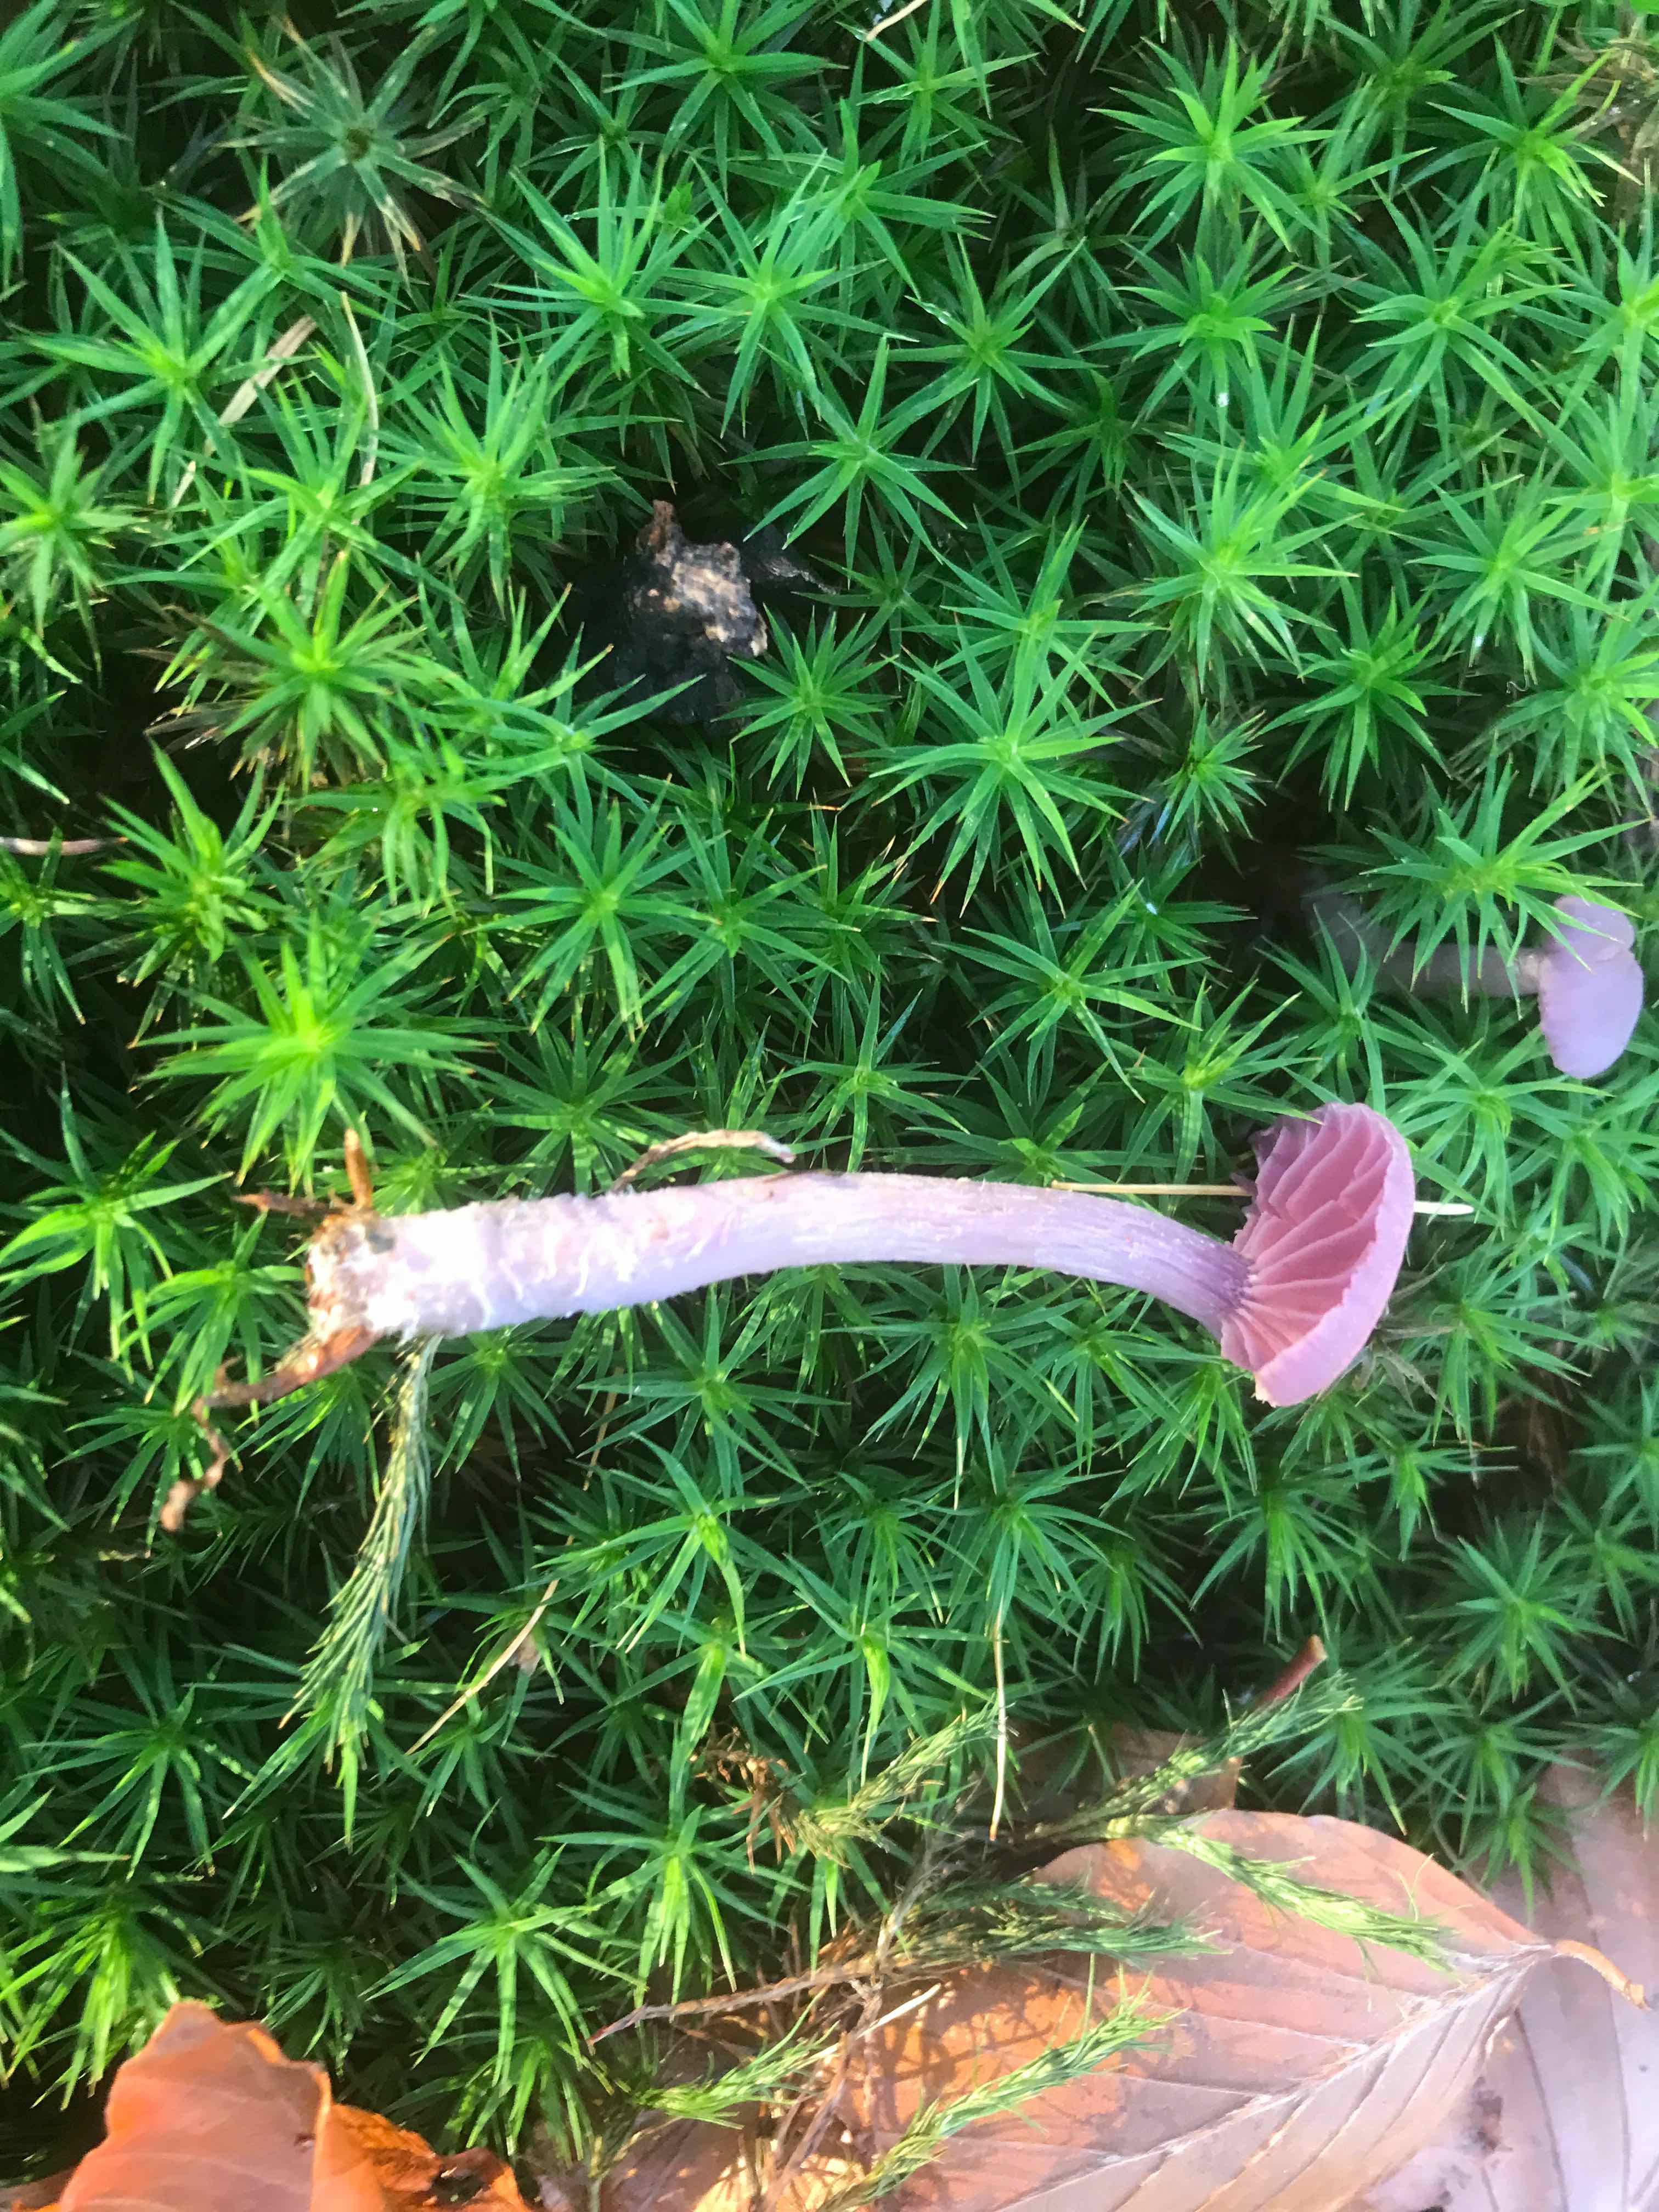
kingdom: Fungi
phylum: Basidiomycota
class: Agaricomycetes
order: Agaricales
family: Hydnangiaceae
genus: Laccaria
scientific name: Laccaria amethystina
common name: violet ametysthat
